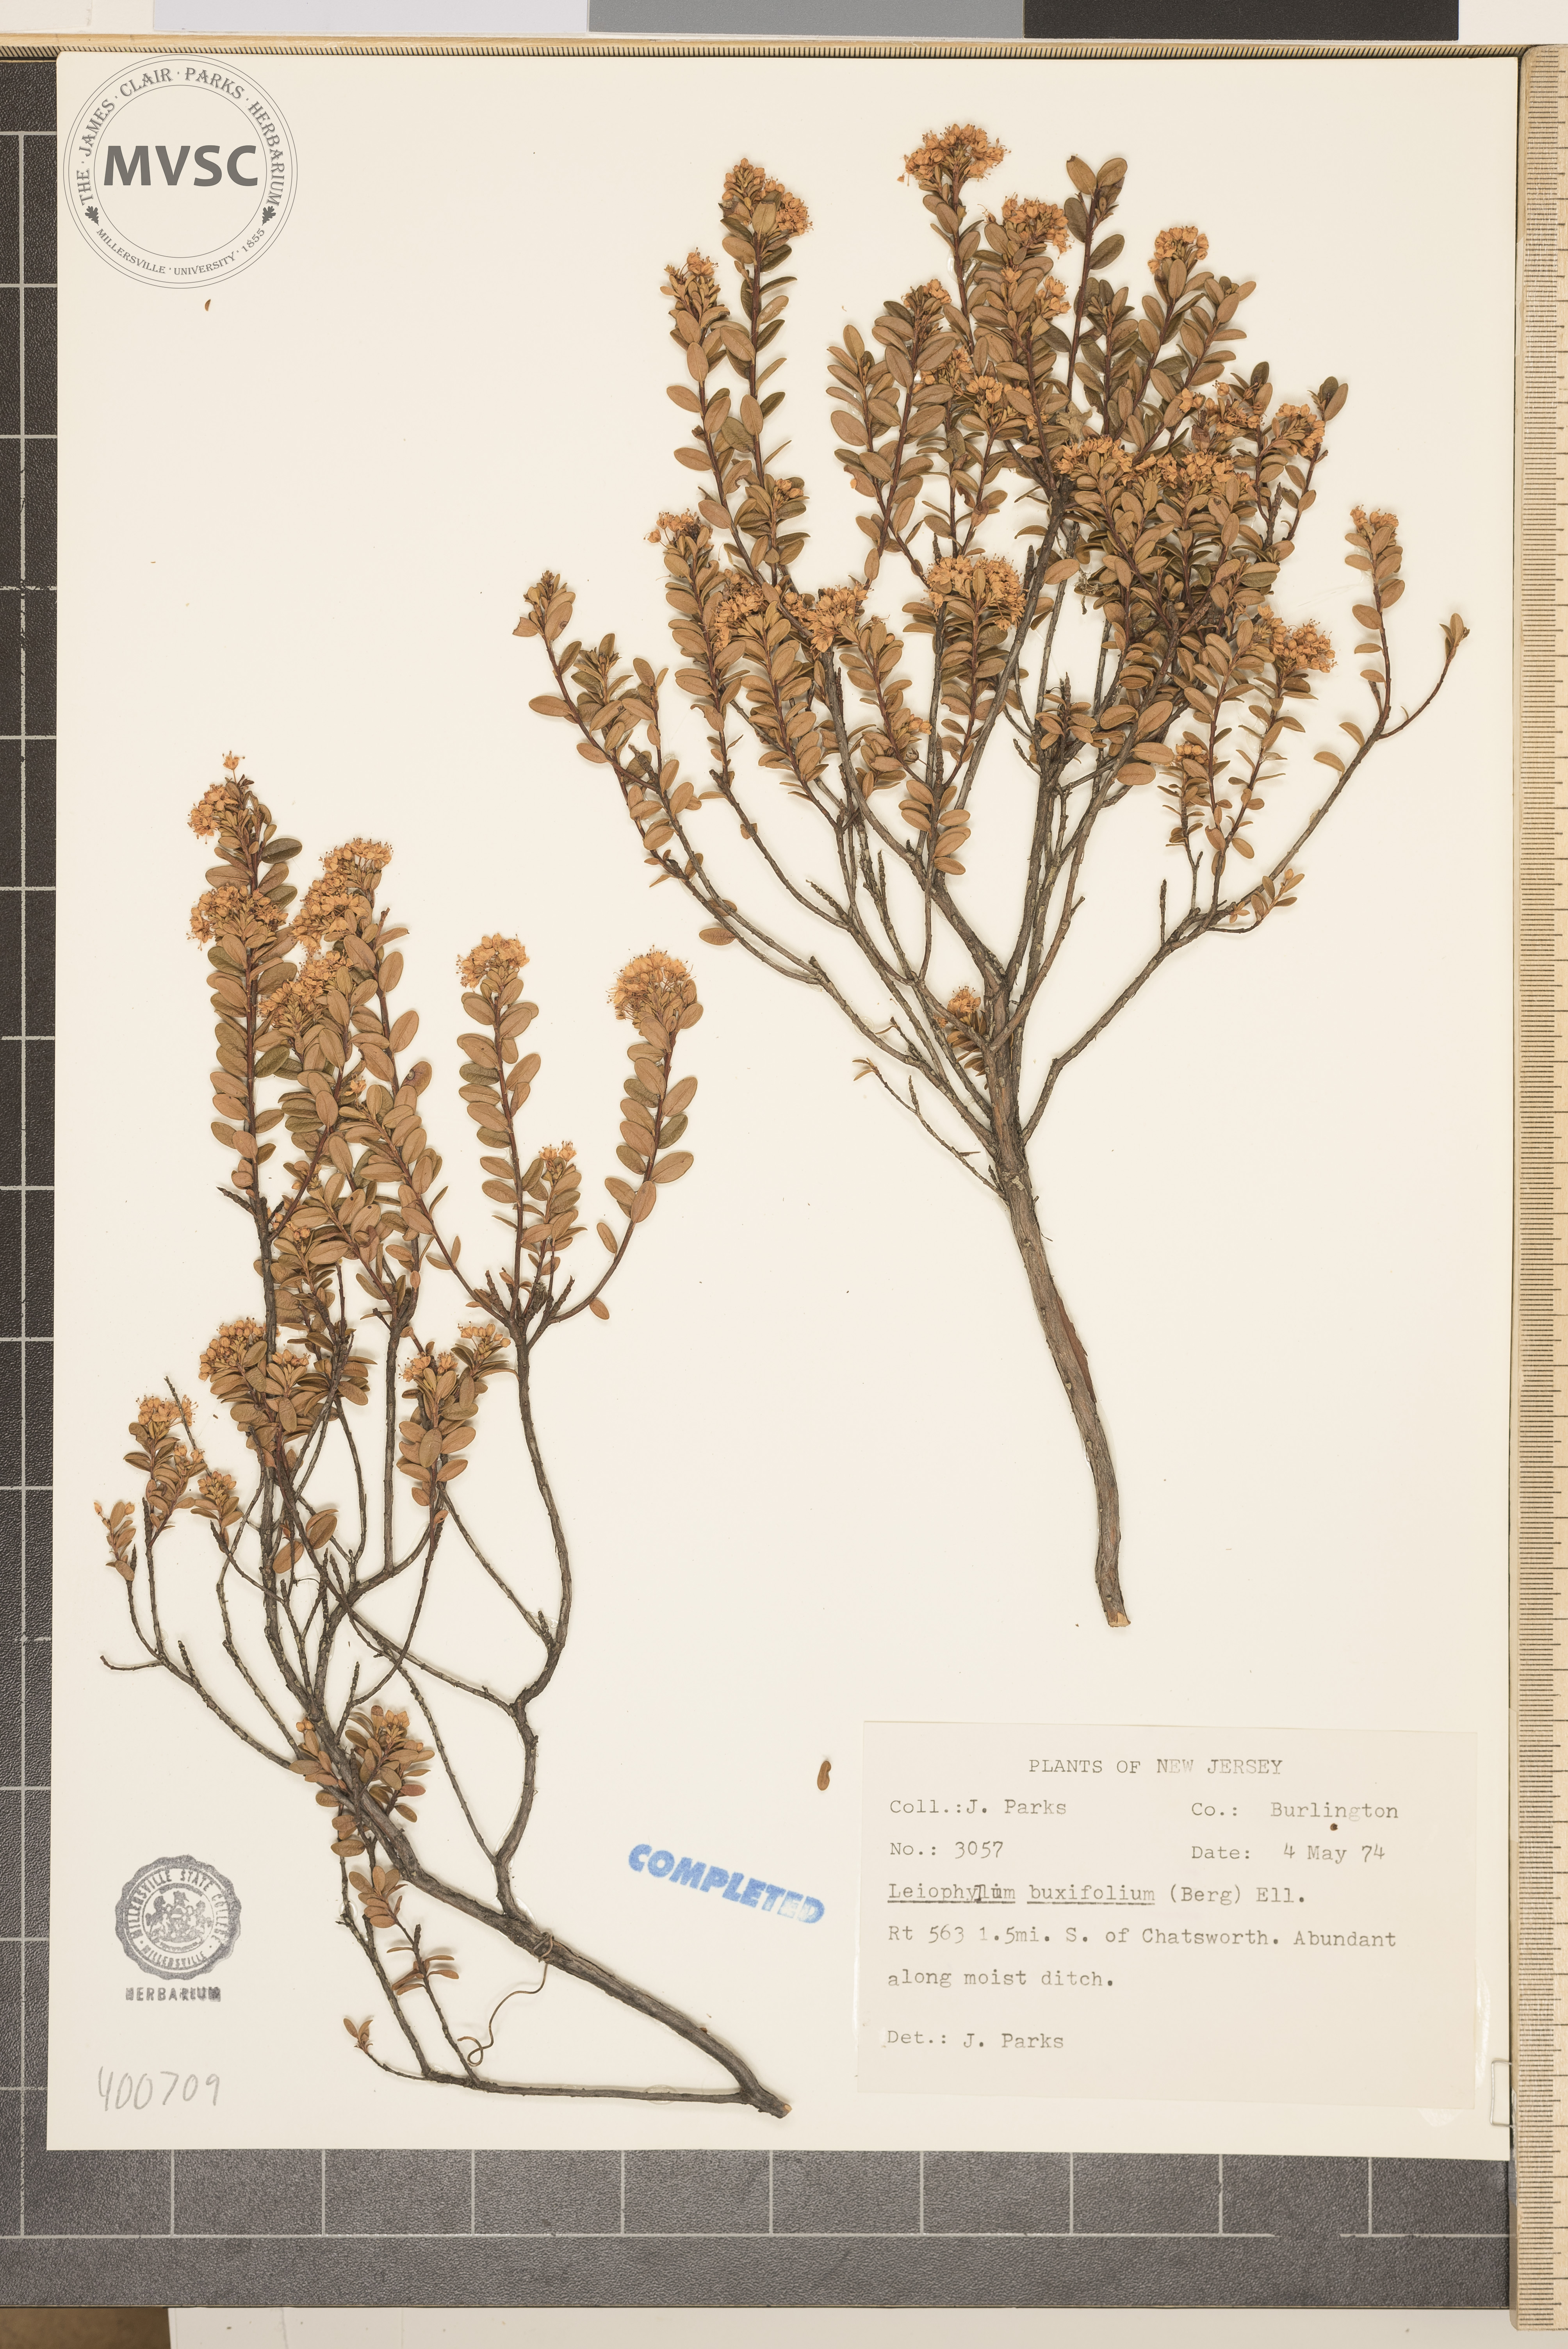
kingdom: Plantae
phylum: Tracheophyta
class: Magnoliopsida
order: Ericales
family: Ericaceae
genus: Kalmia
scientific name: Kalmia buxifolia
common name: Sandmyrtle
